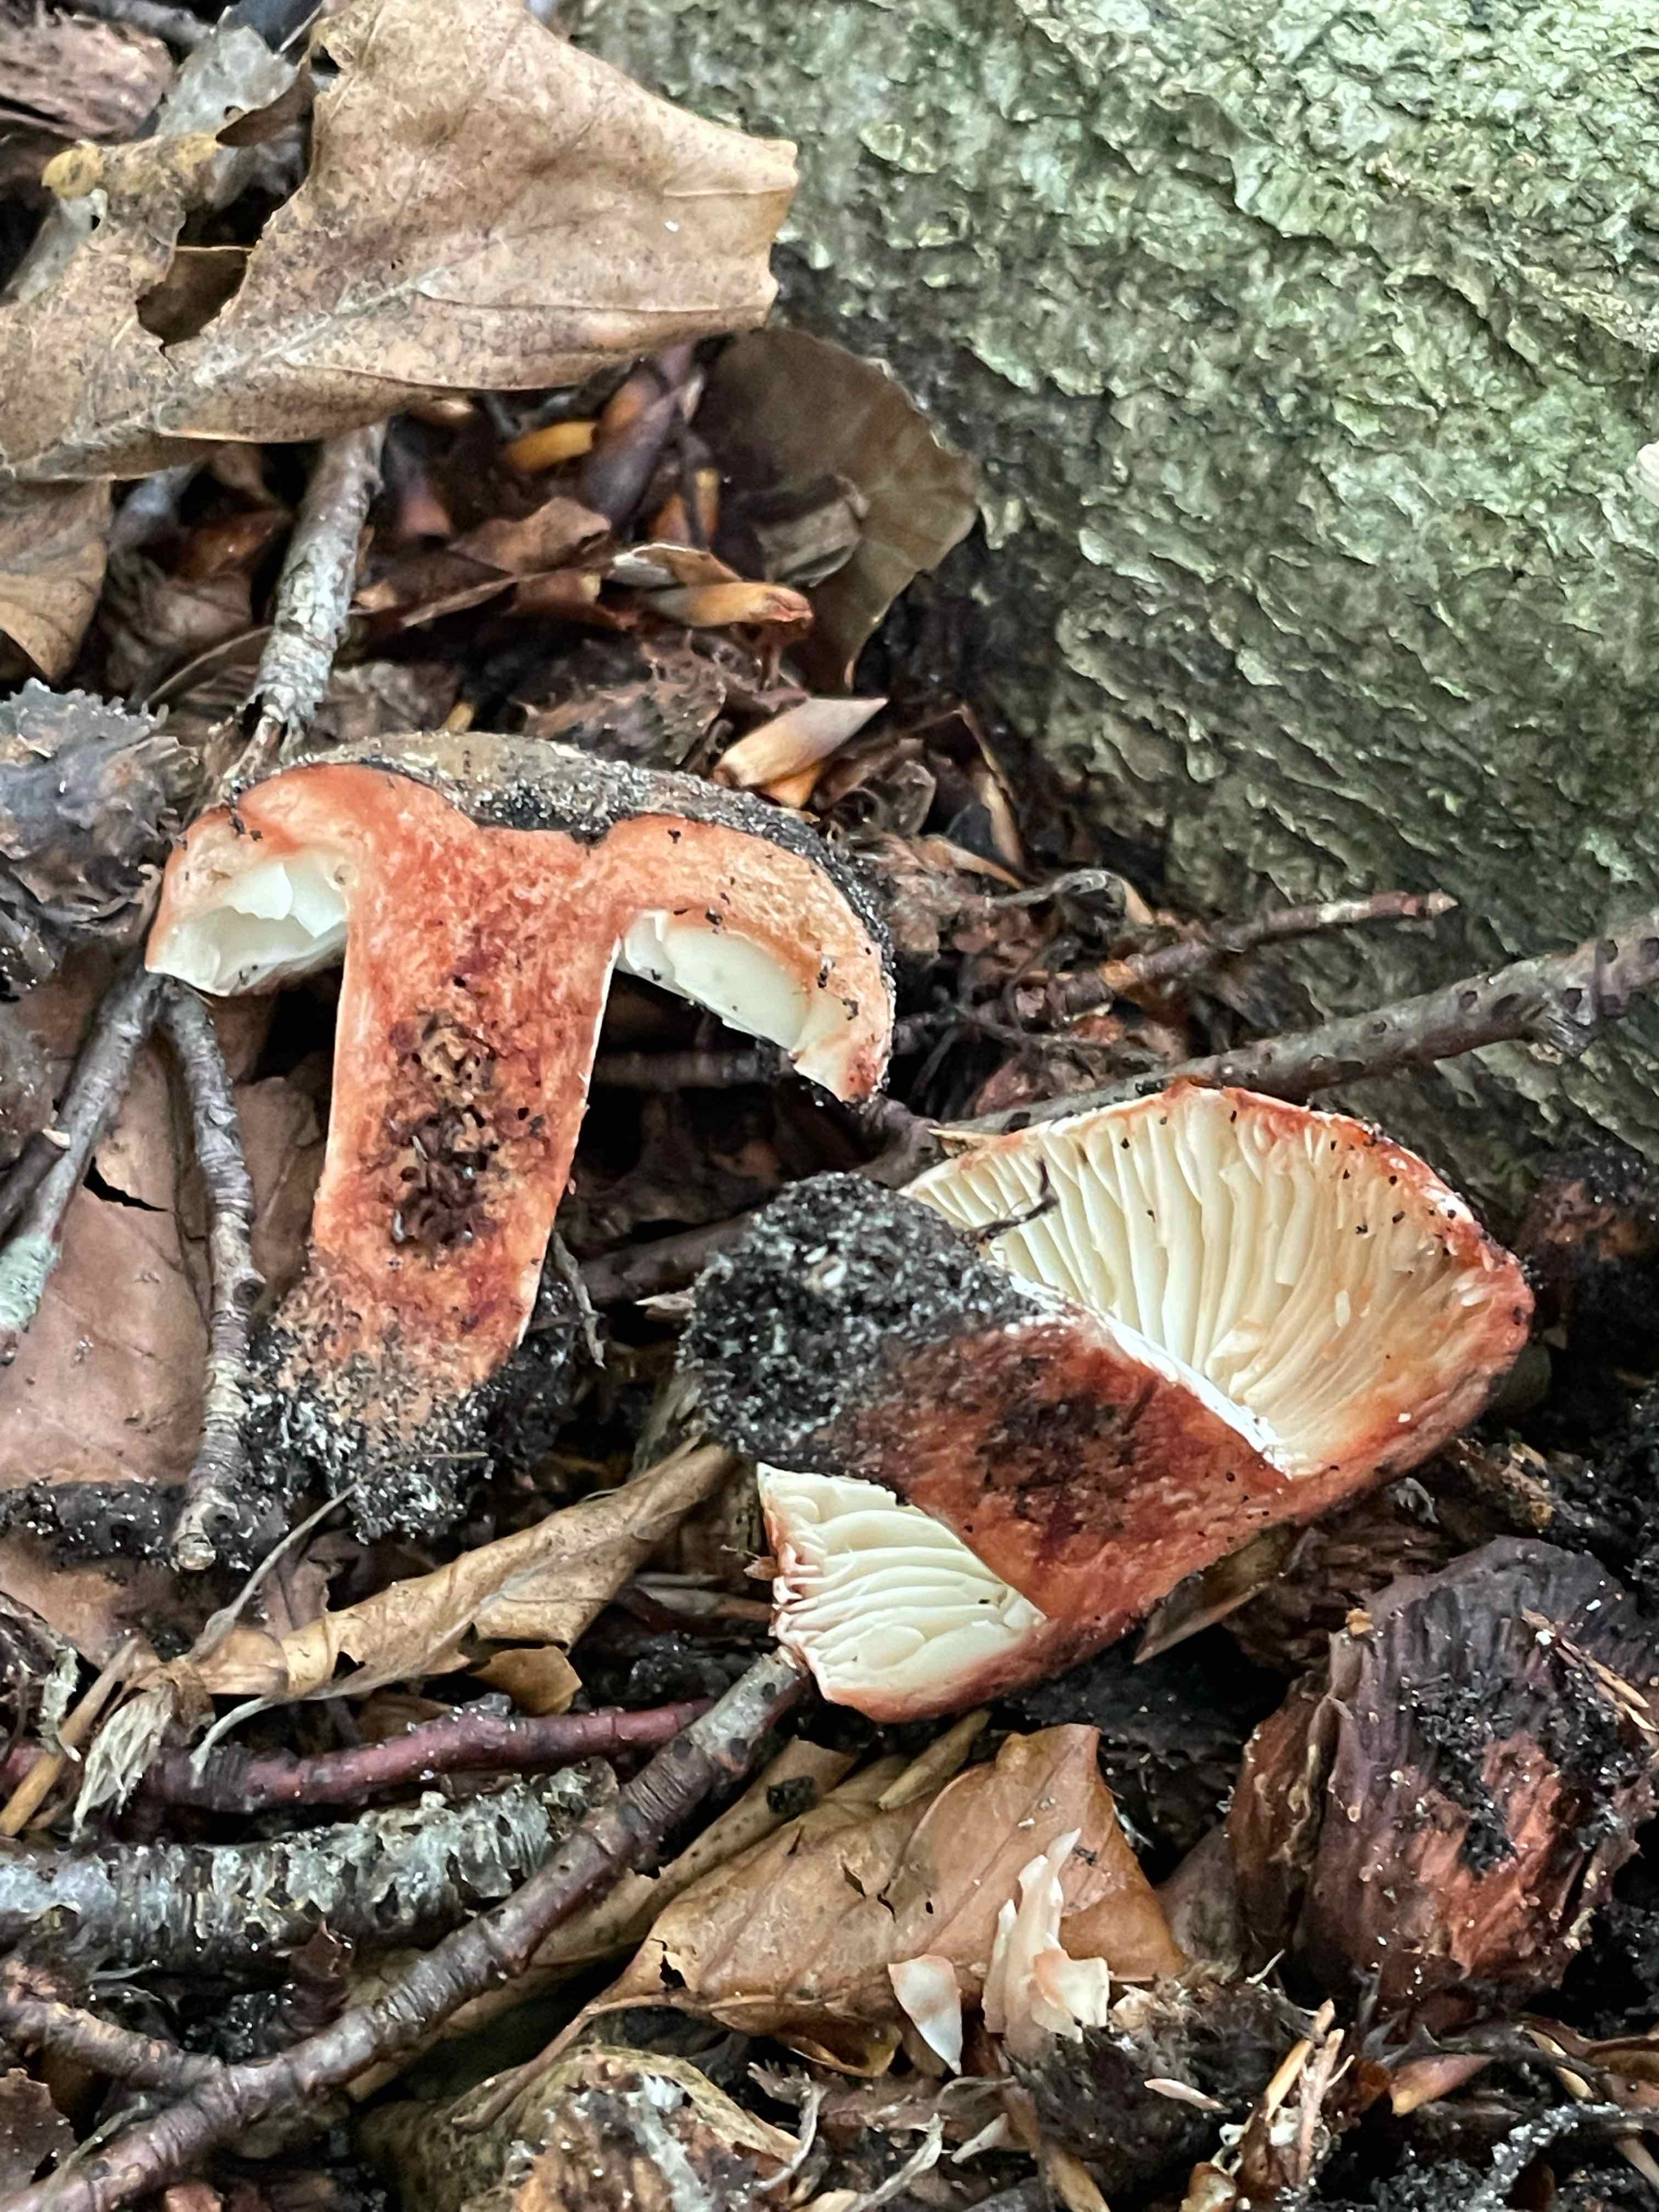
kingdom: Fungi
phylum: Basidiomycota
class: Agaricomycetes
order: Russulales
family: Russulaceae
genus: Russula
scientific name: Russula adusta
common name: sværtende skørhat
